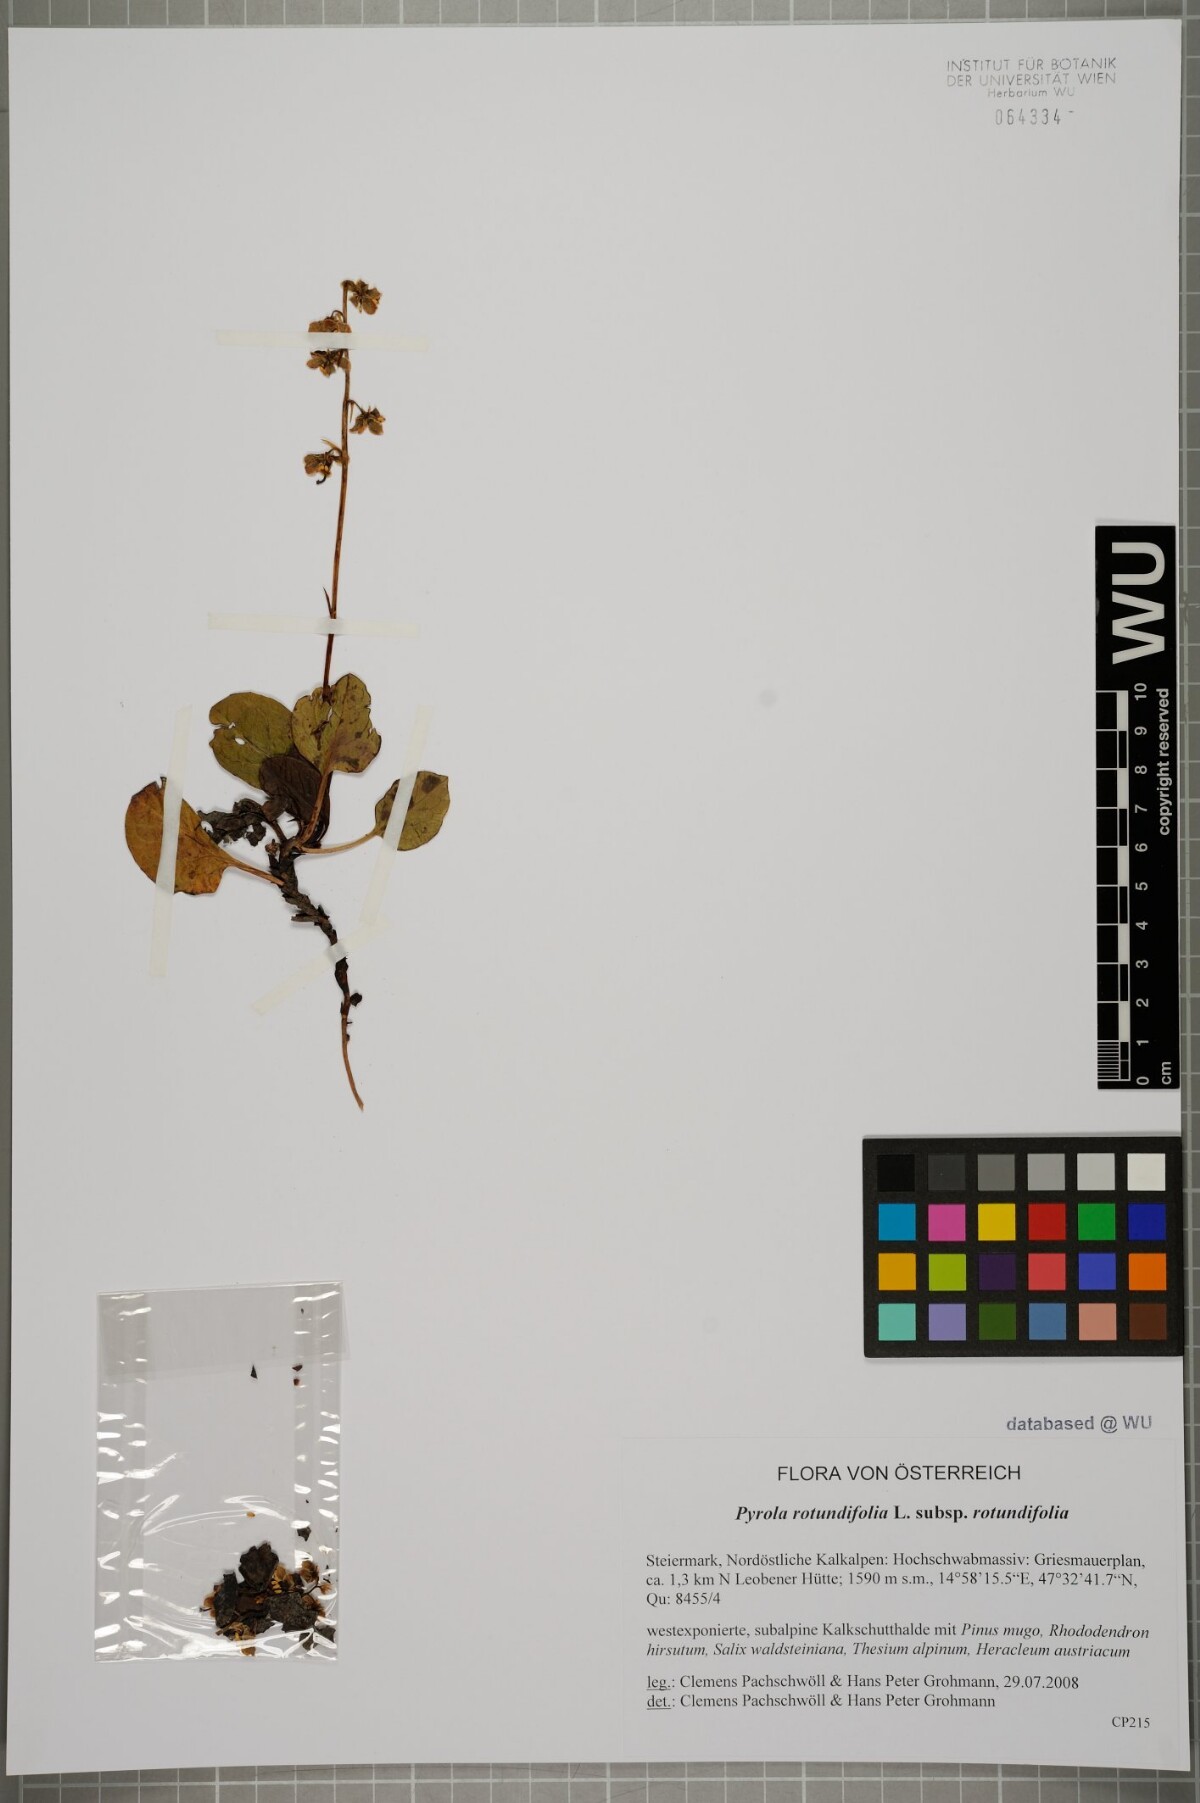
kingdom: Plantae
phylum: Tracheophyta
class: Magnoliopsida
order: Ericales
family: Ericaceae
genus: Pyrola
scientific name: Pyrola rotundifolia
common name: Round-leaved wintergreen
